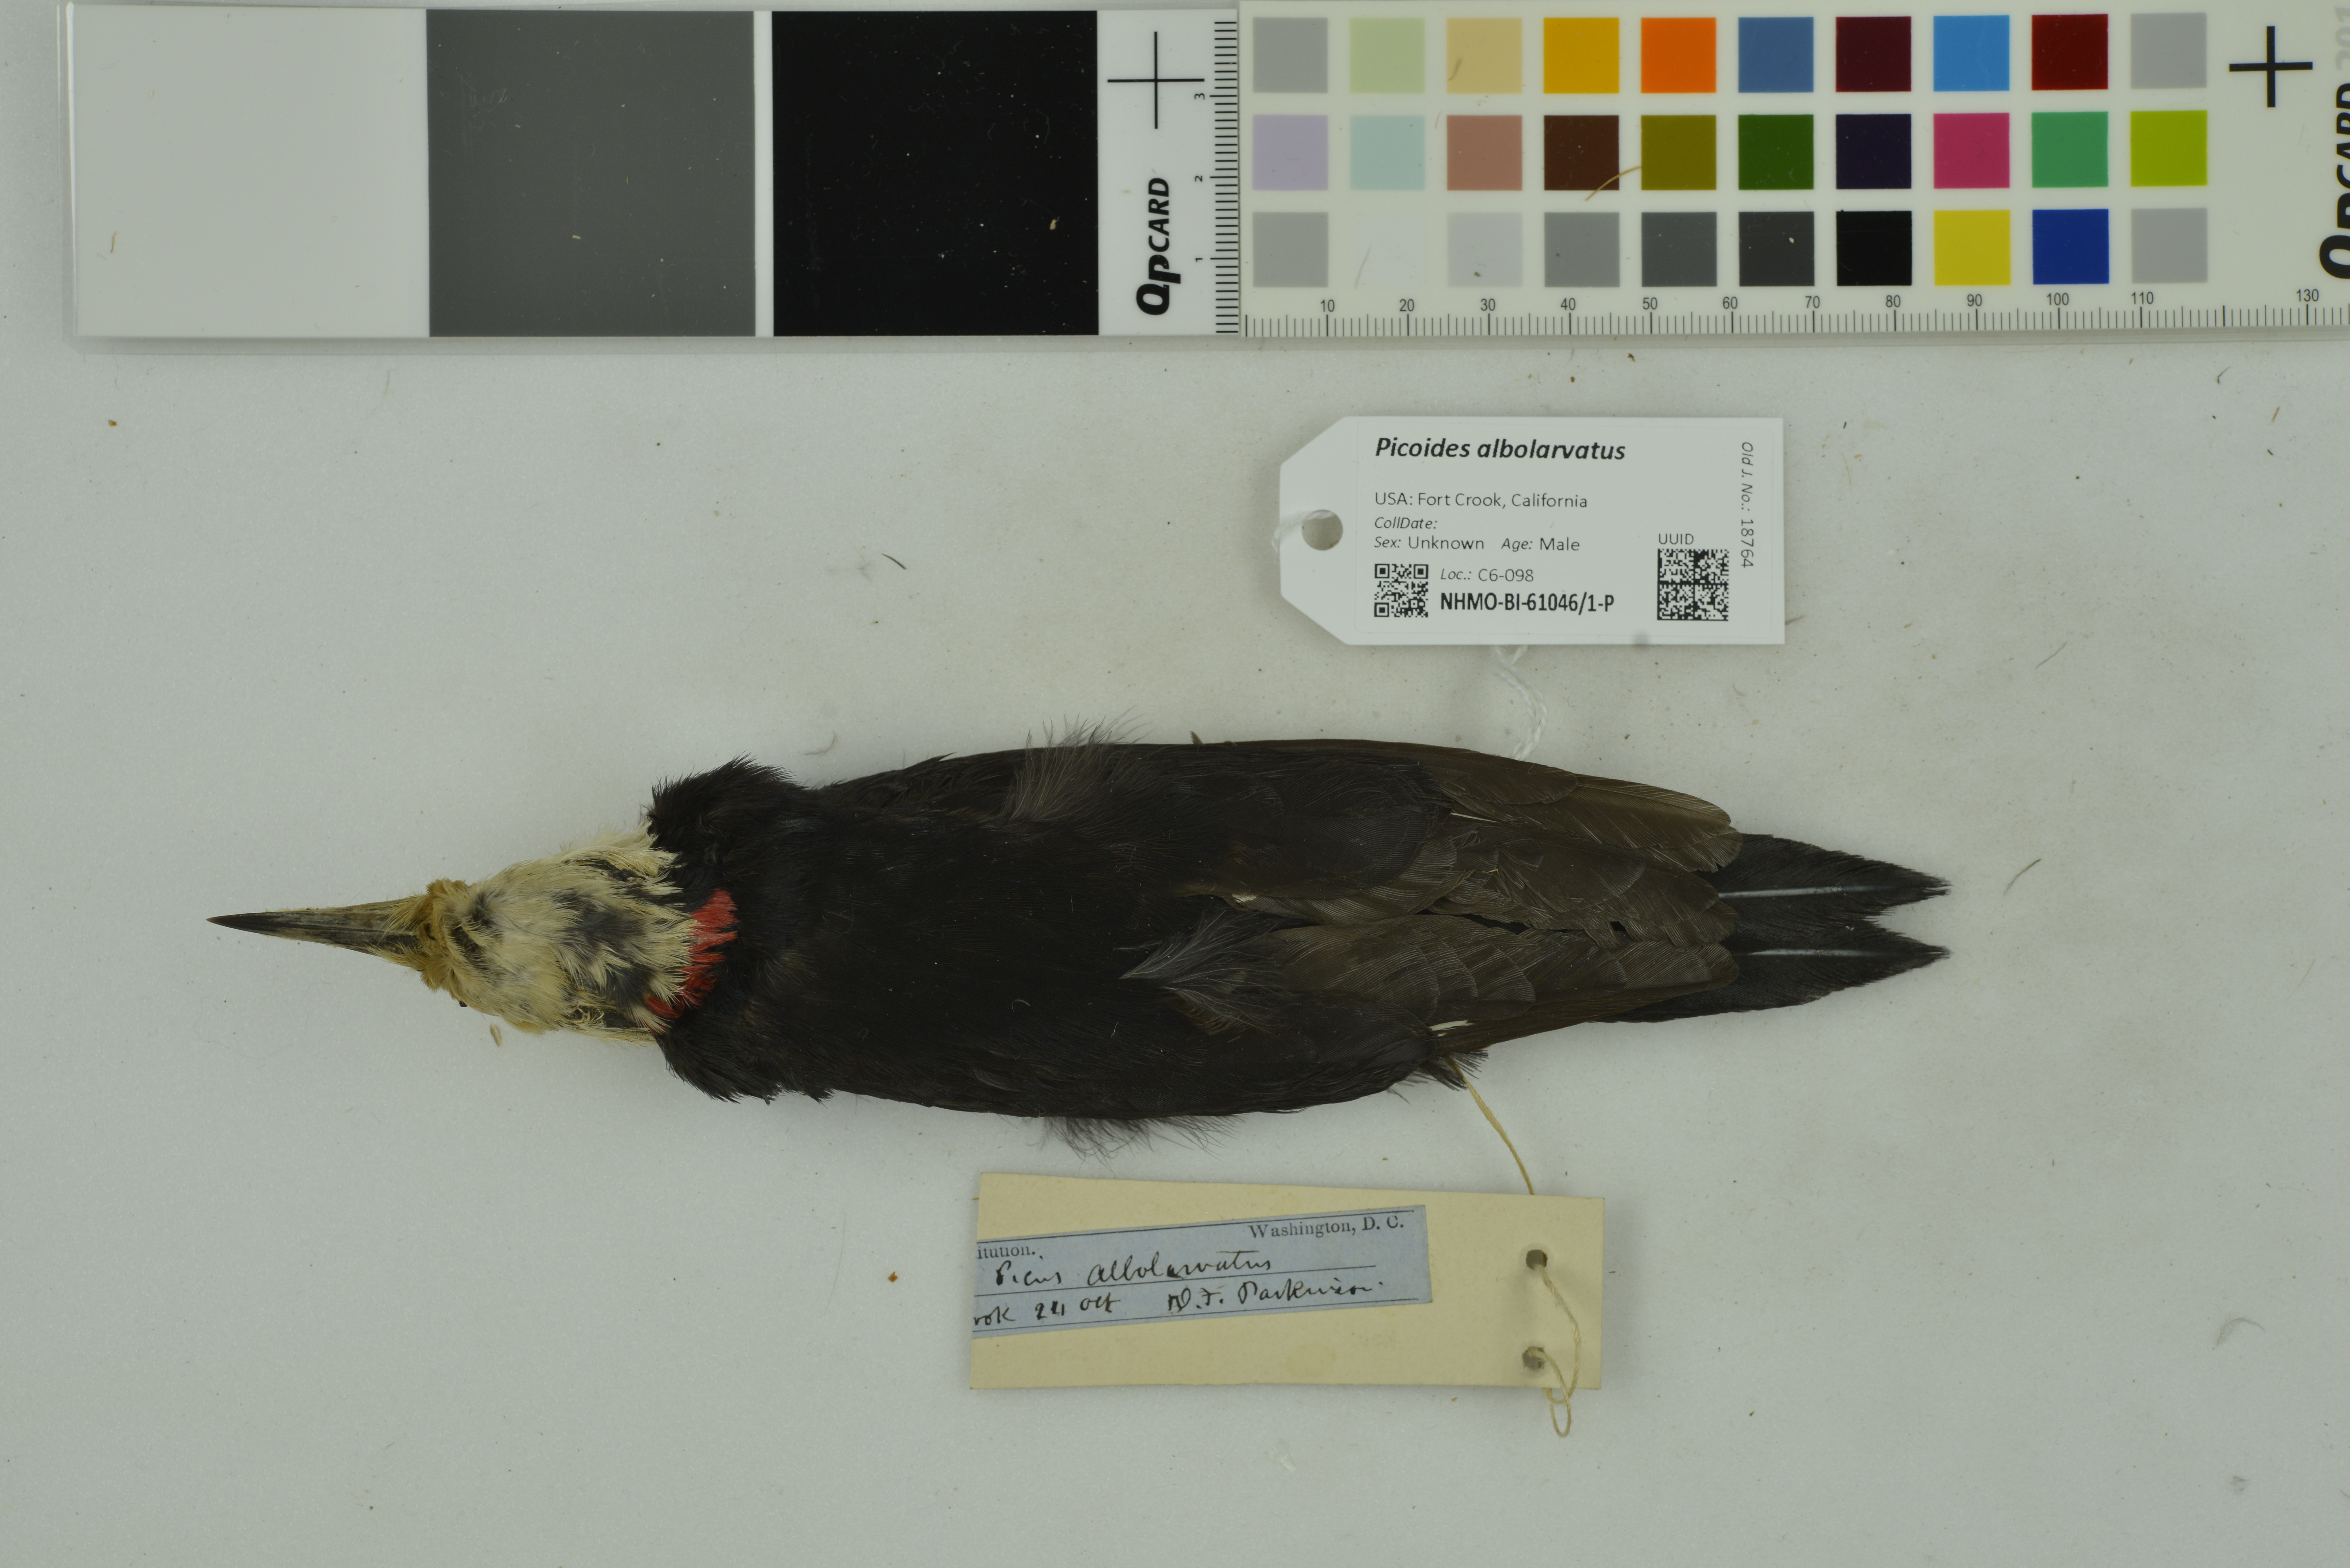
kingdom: Animalia
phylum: Chordata
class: Aves
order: Piciformes
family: Picidae
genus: Leuconotopicus
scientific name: Leuconotopicus albolarvatus
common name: White-headed woodpecker
